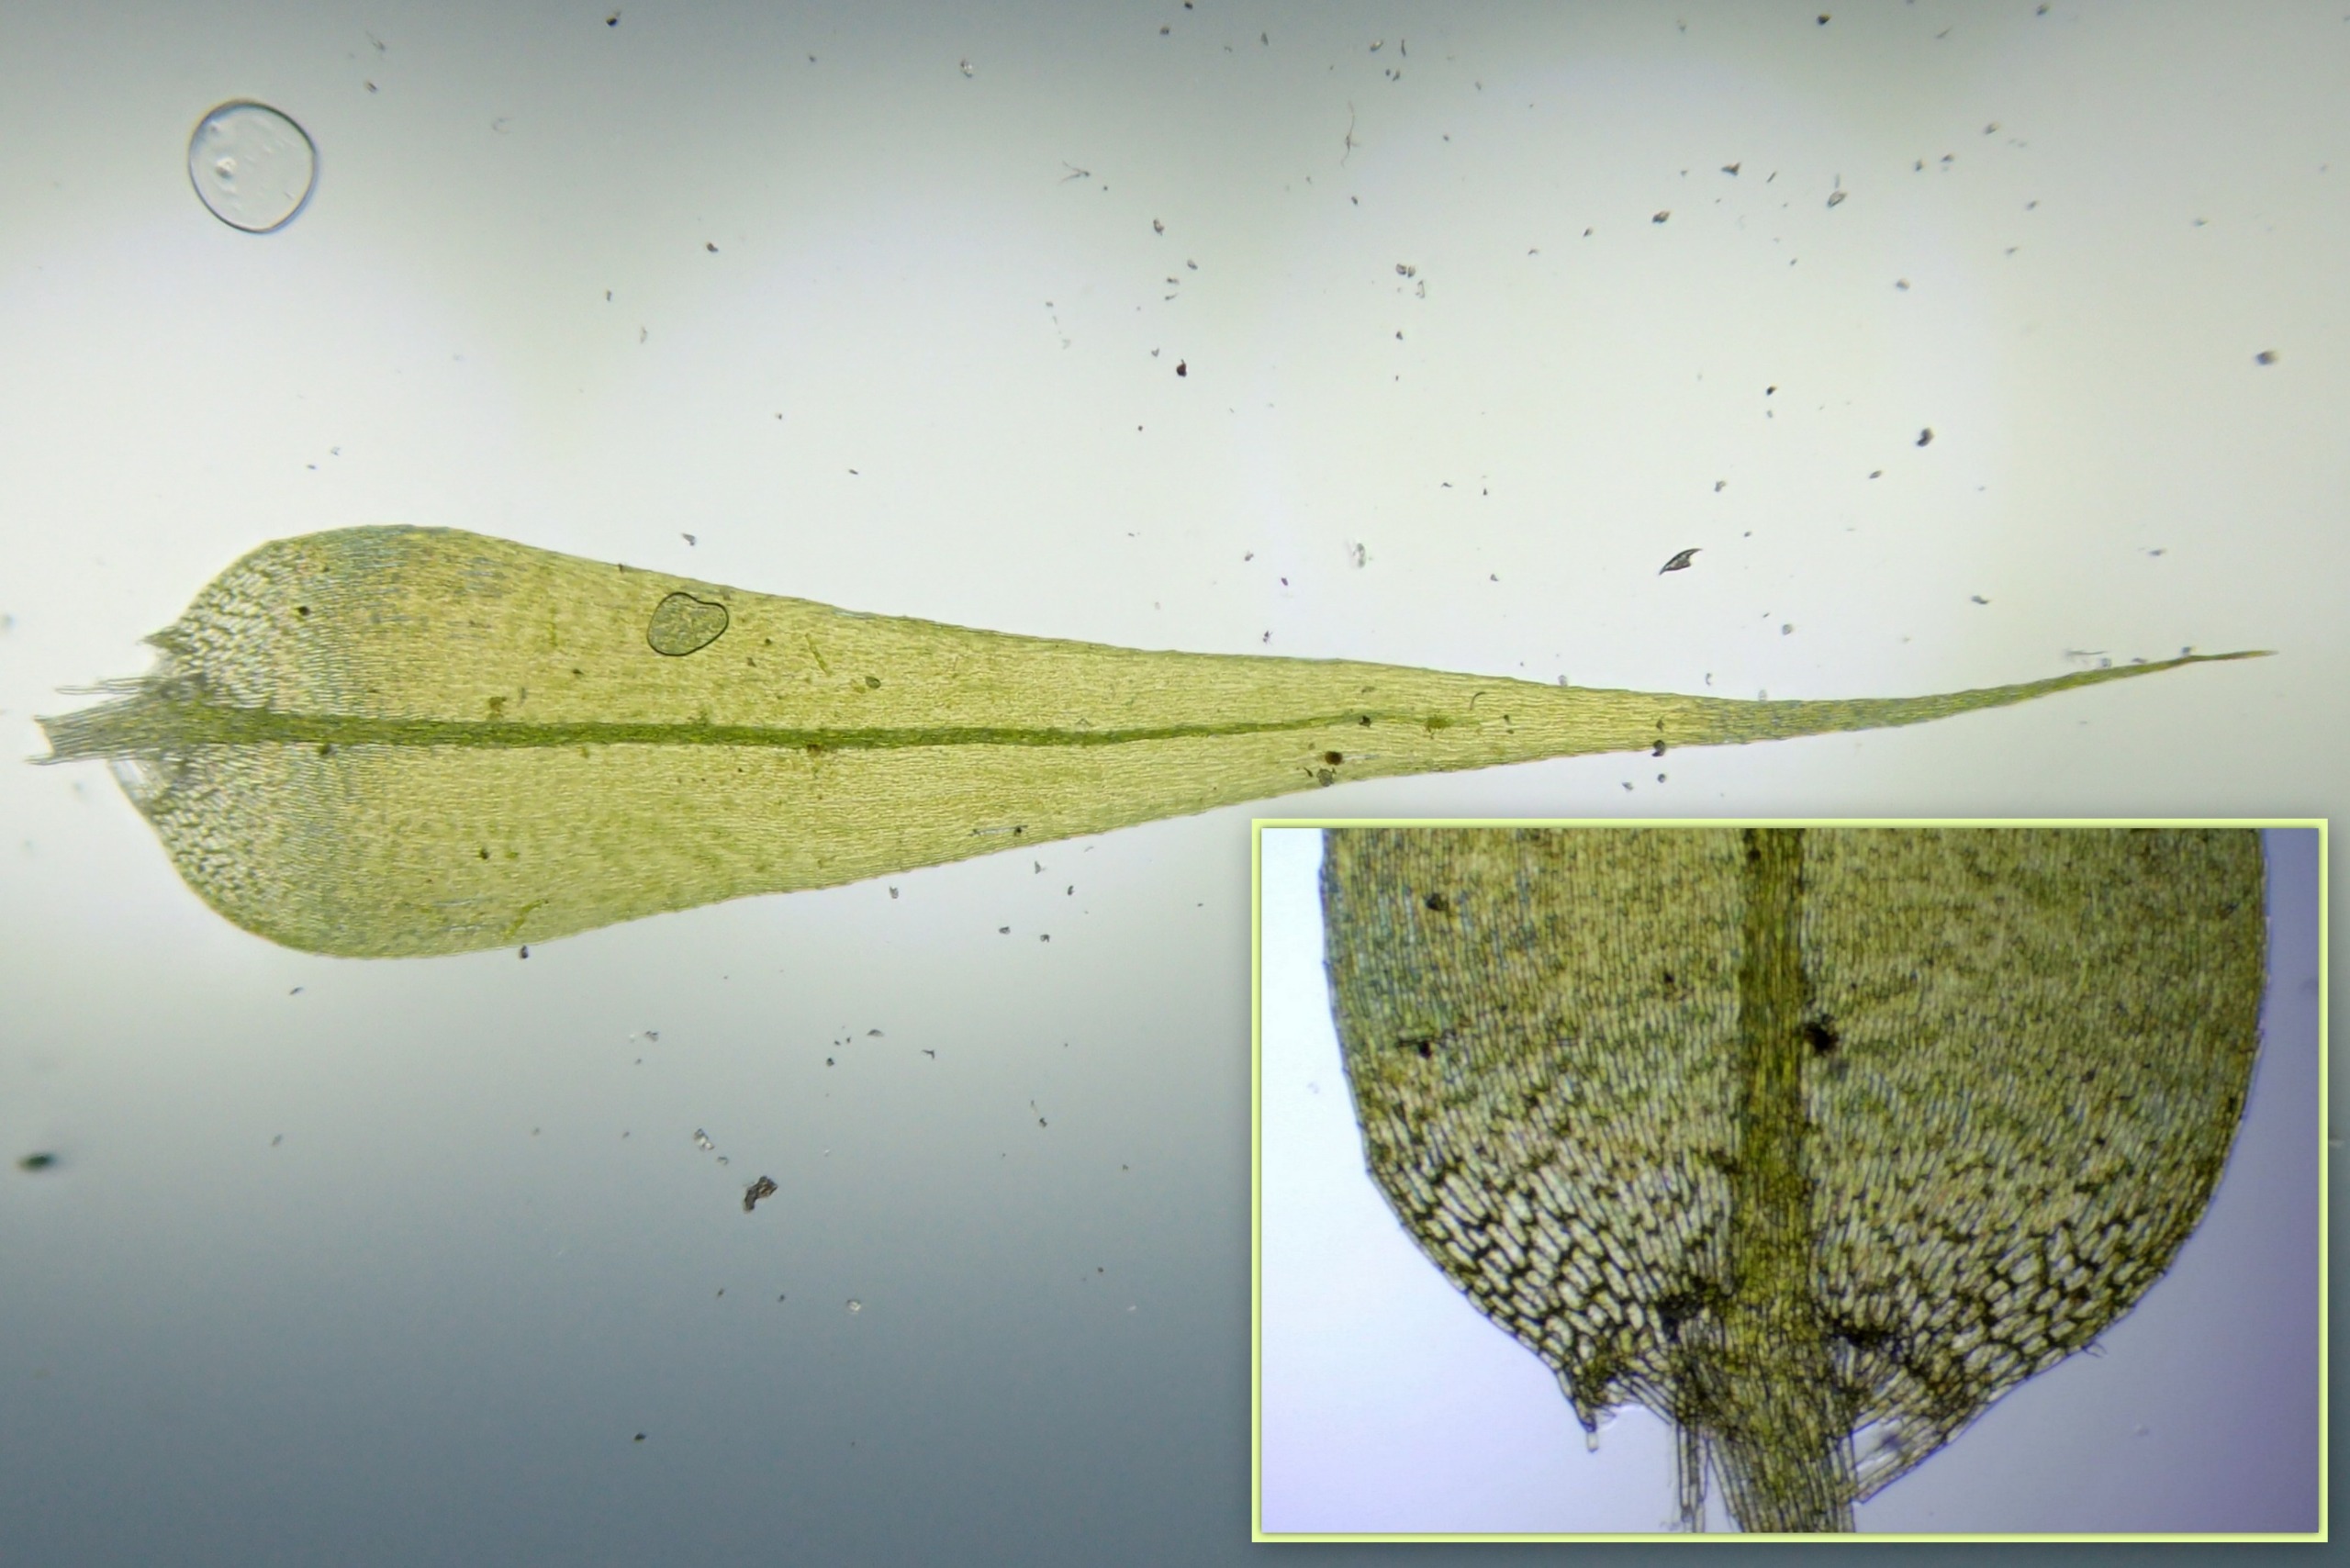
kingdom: Plantae
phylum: Bryophyta
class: Bryopsida
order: Hypnales
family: Amblystegiaceae
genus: Leptodictyum
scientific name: Leptodictyum riparium
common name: Stor pytmos
